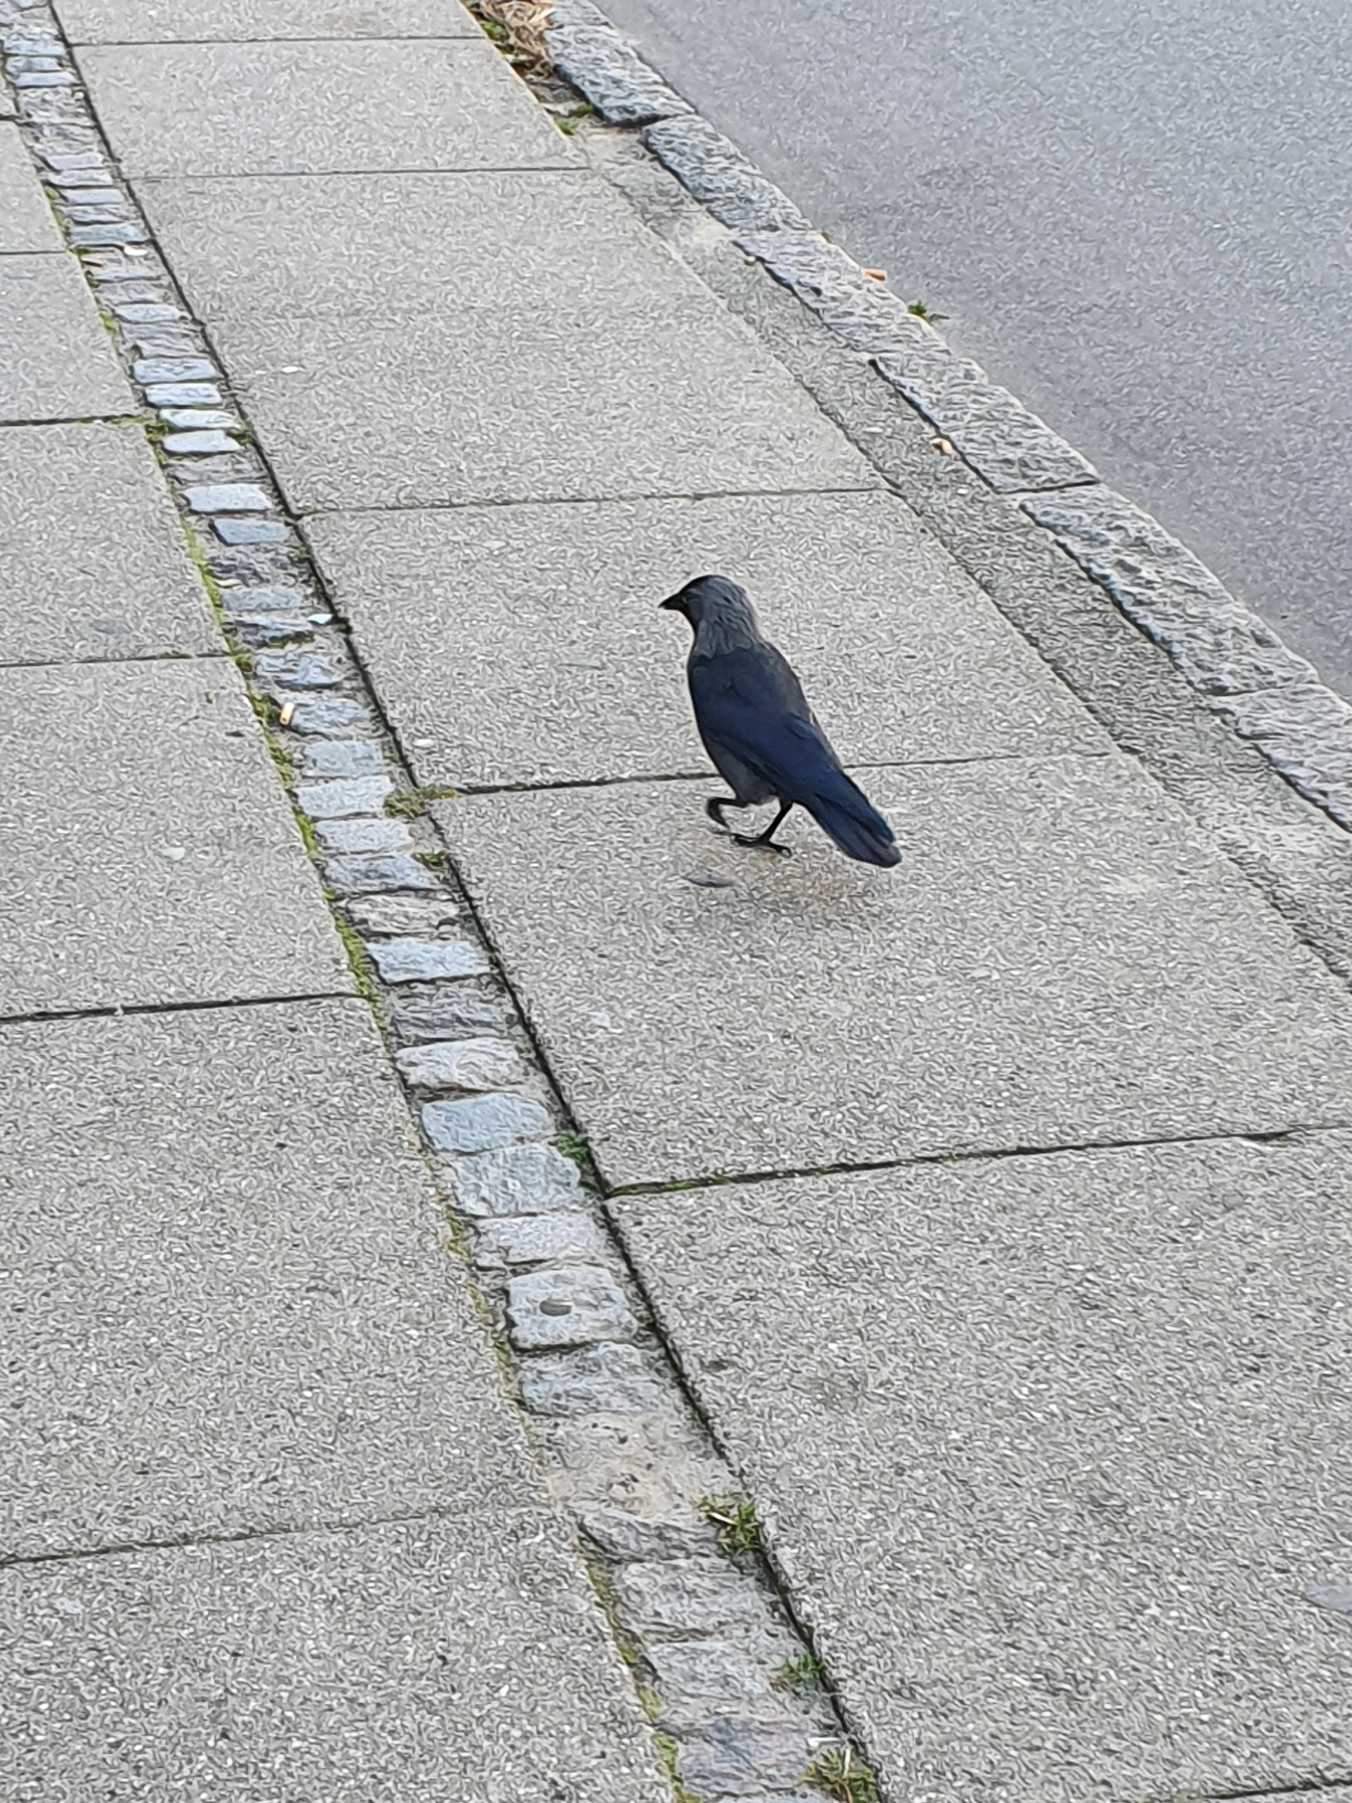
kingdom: Animalia
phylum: Chordata
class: Aves
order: Passeriformes
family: Corvidae
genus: Coloeus
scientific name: Coloeus monedula
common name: Allike
